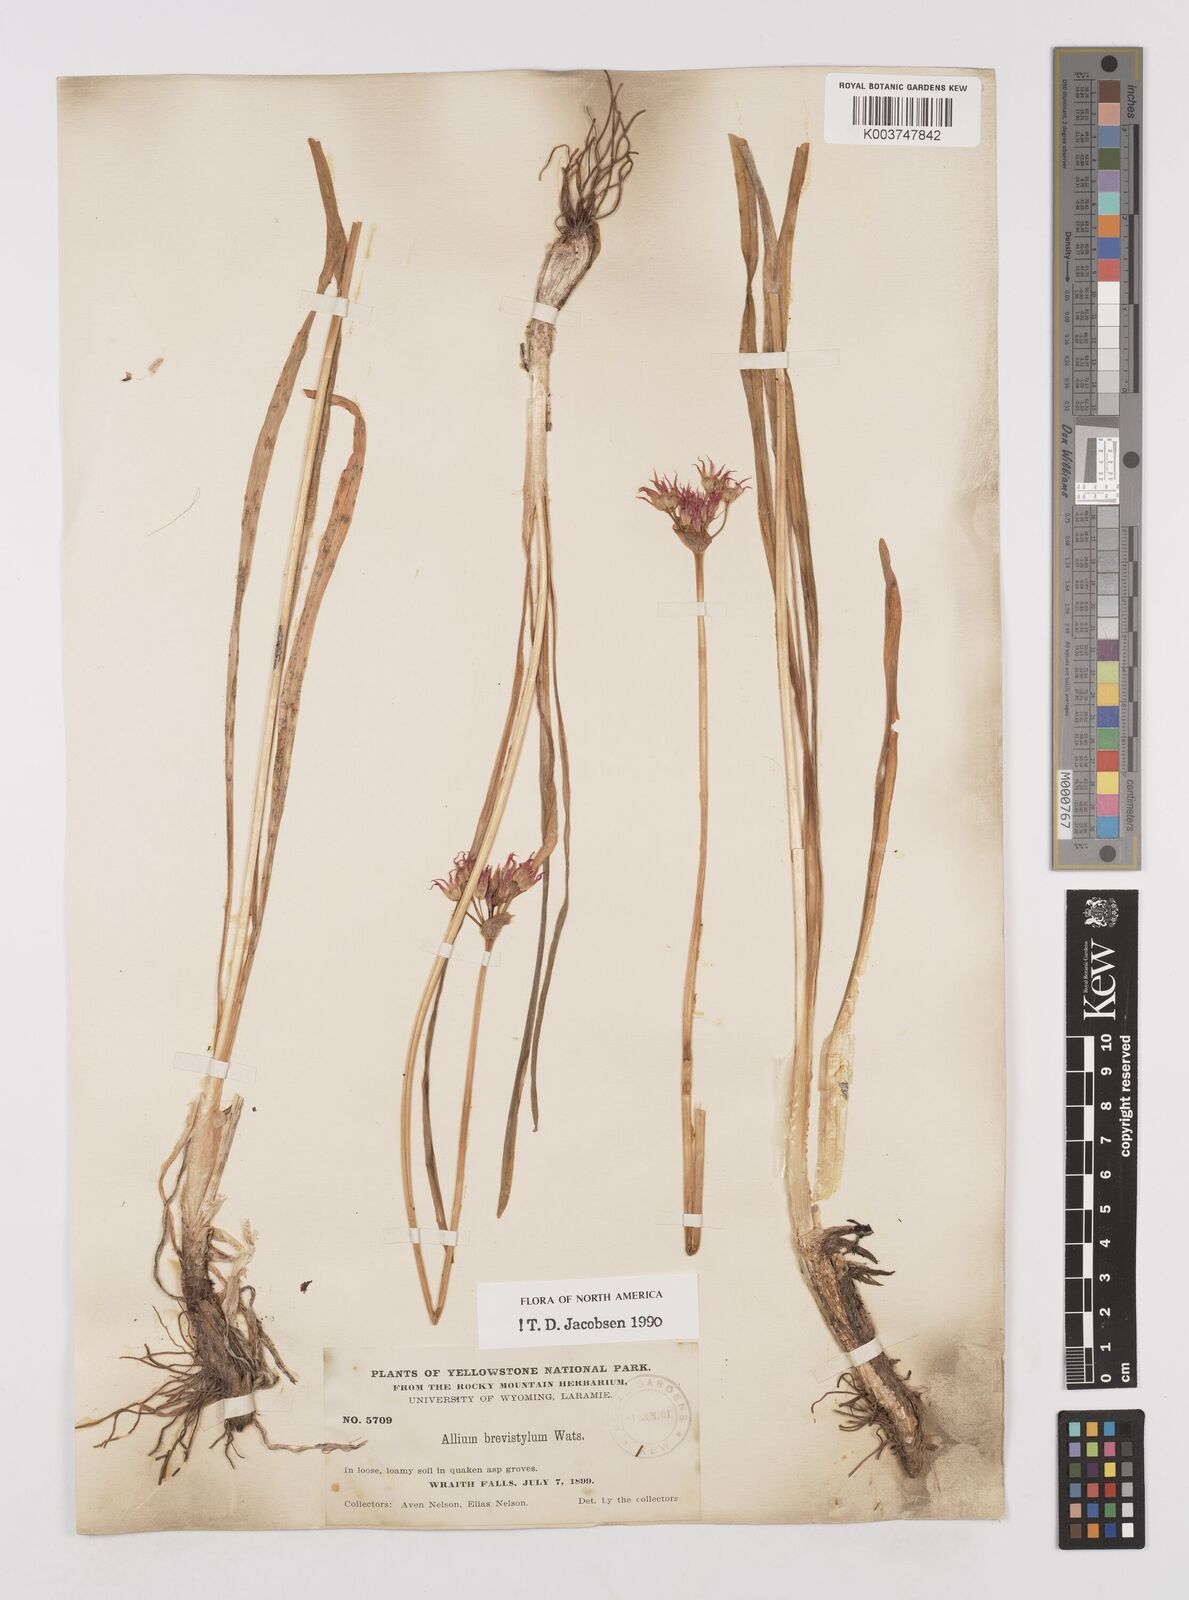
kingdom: Plantae
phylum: Tracheophyta
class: Liliopsida
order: Asparagales
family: Amaryllidaceae
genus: Allium
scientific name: Allium brevistylum
